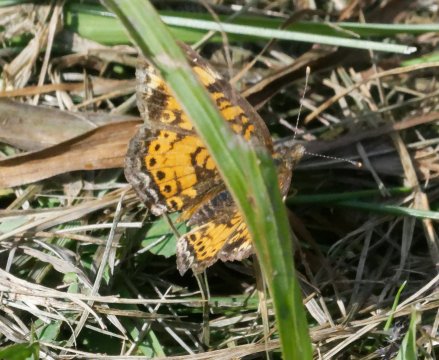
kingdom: Animalia
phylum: Arthropoda
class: Insecta
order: Lepidoptera
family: Nymphalidae
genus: Phyciodes
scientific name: Phyciodes
